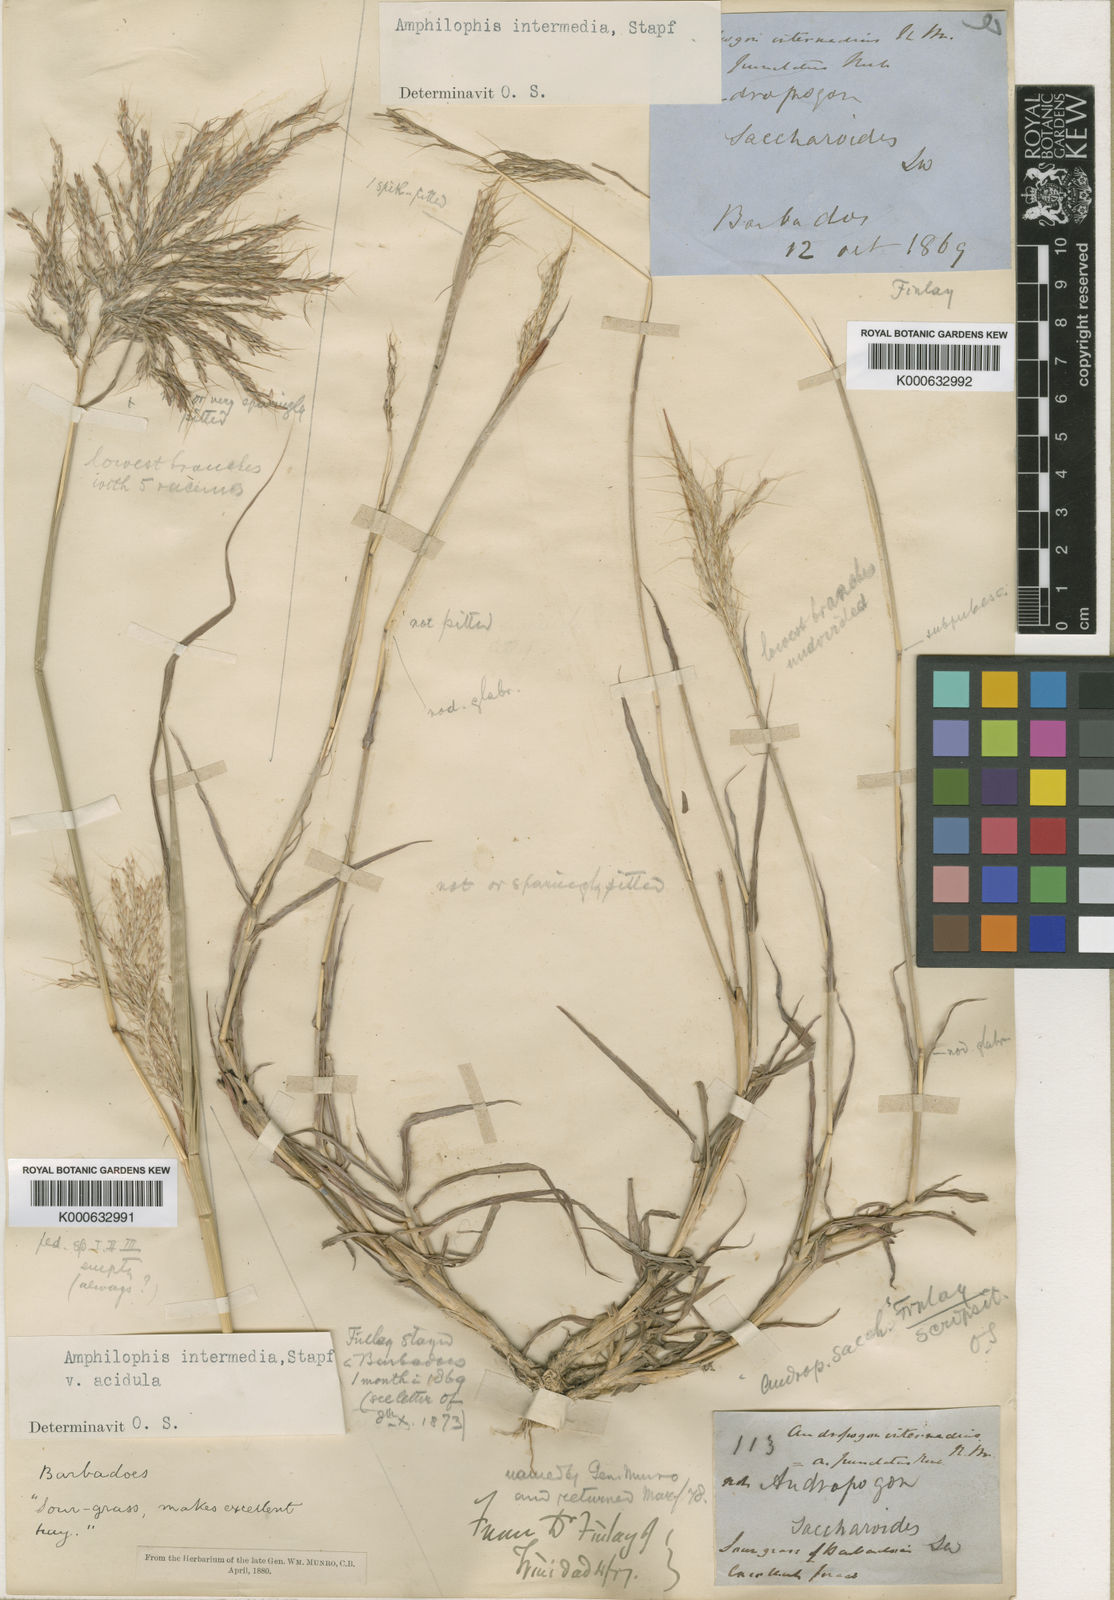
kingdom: Plantae
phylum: Tracheophyta
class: Liliopsida
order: Poales
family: Poaceae
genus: Bothriochloa
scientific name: Bothriochloa bladhii
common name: Caucasian bluestem
